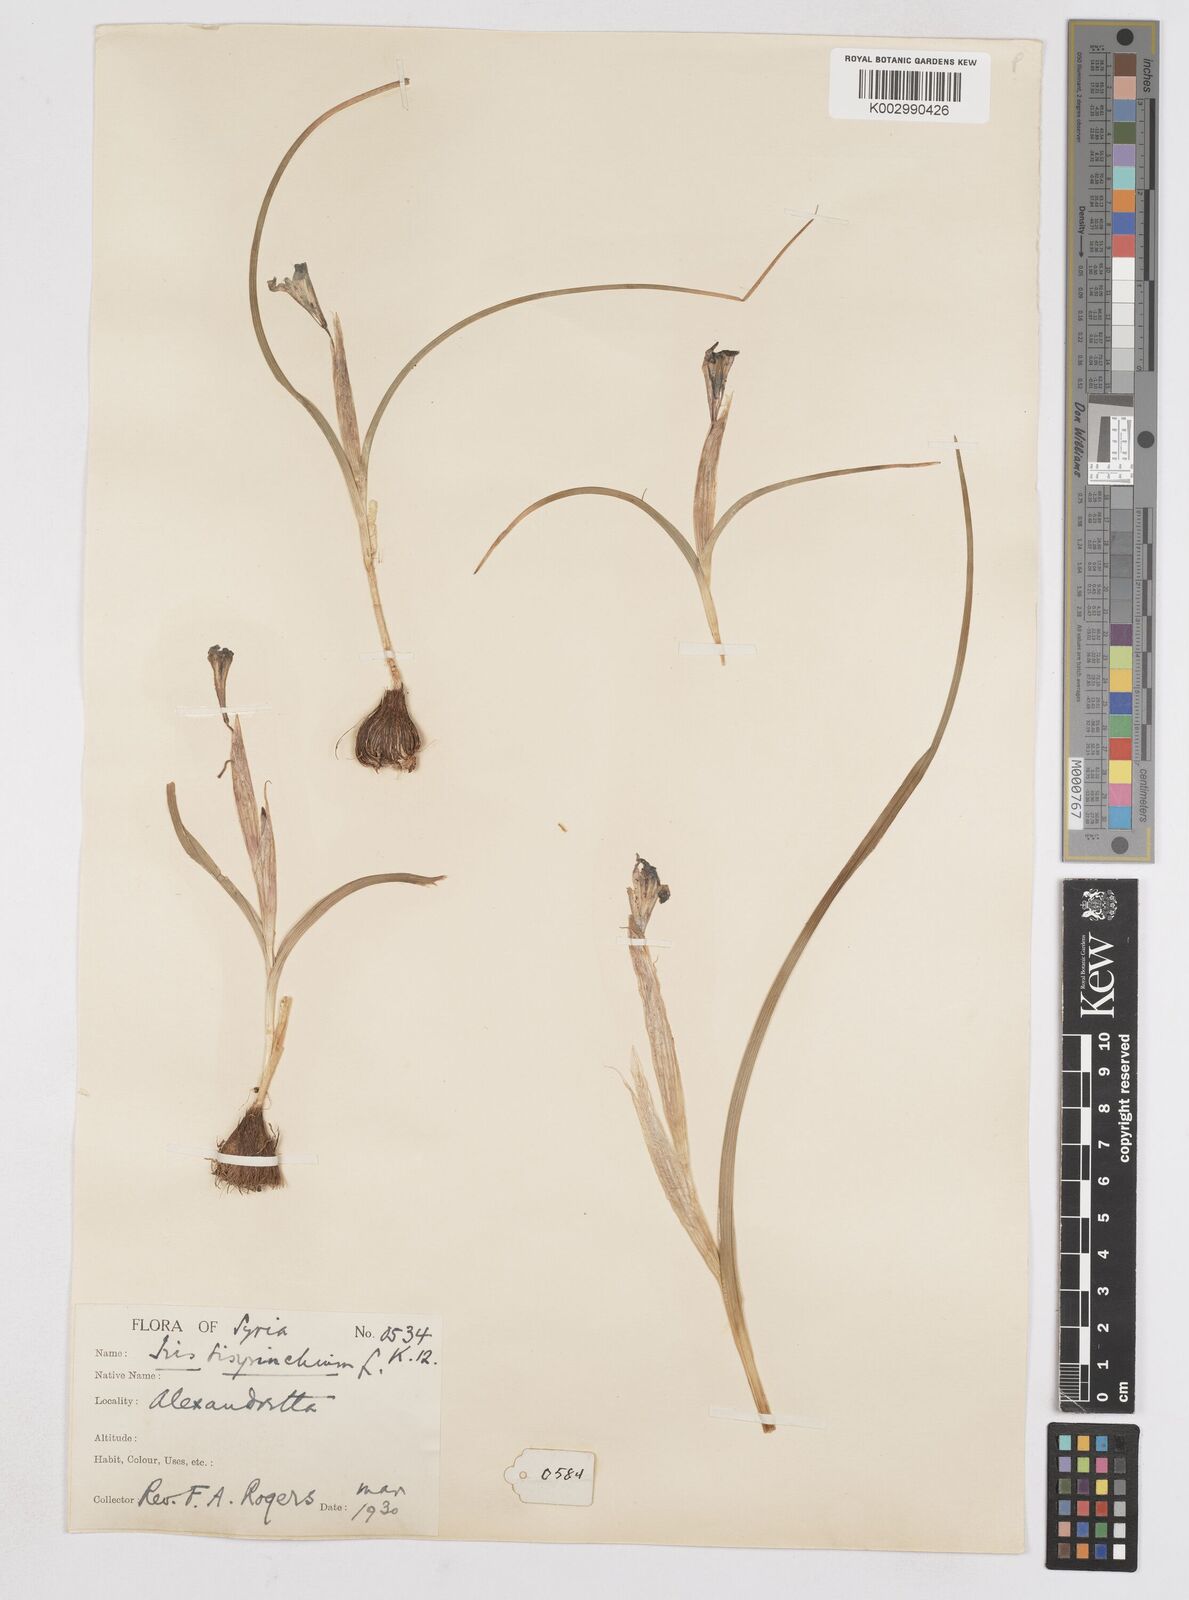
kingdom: Plantae
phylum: Tracheophyta
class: Liliopsida
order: Asparagales
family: Iridaceae
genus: Moraea
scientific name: Moraea sisyrinchium
